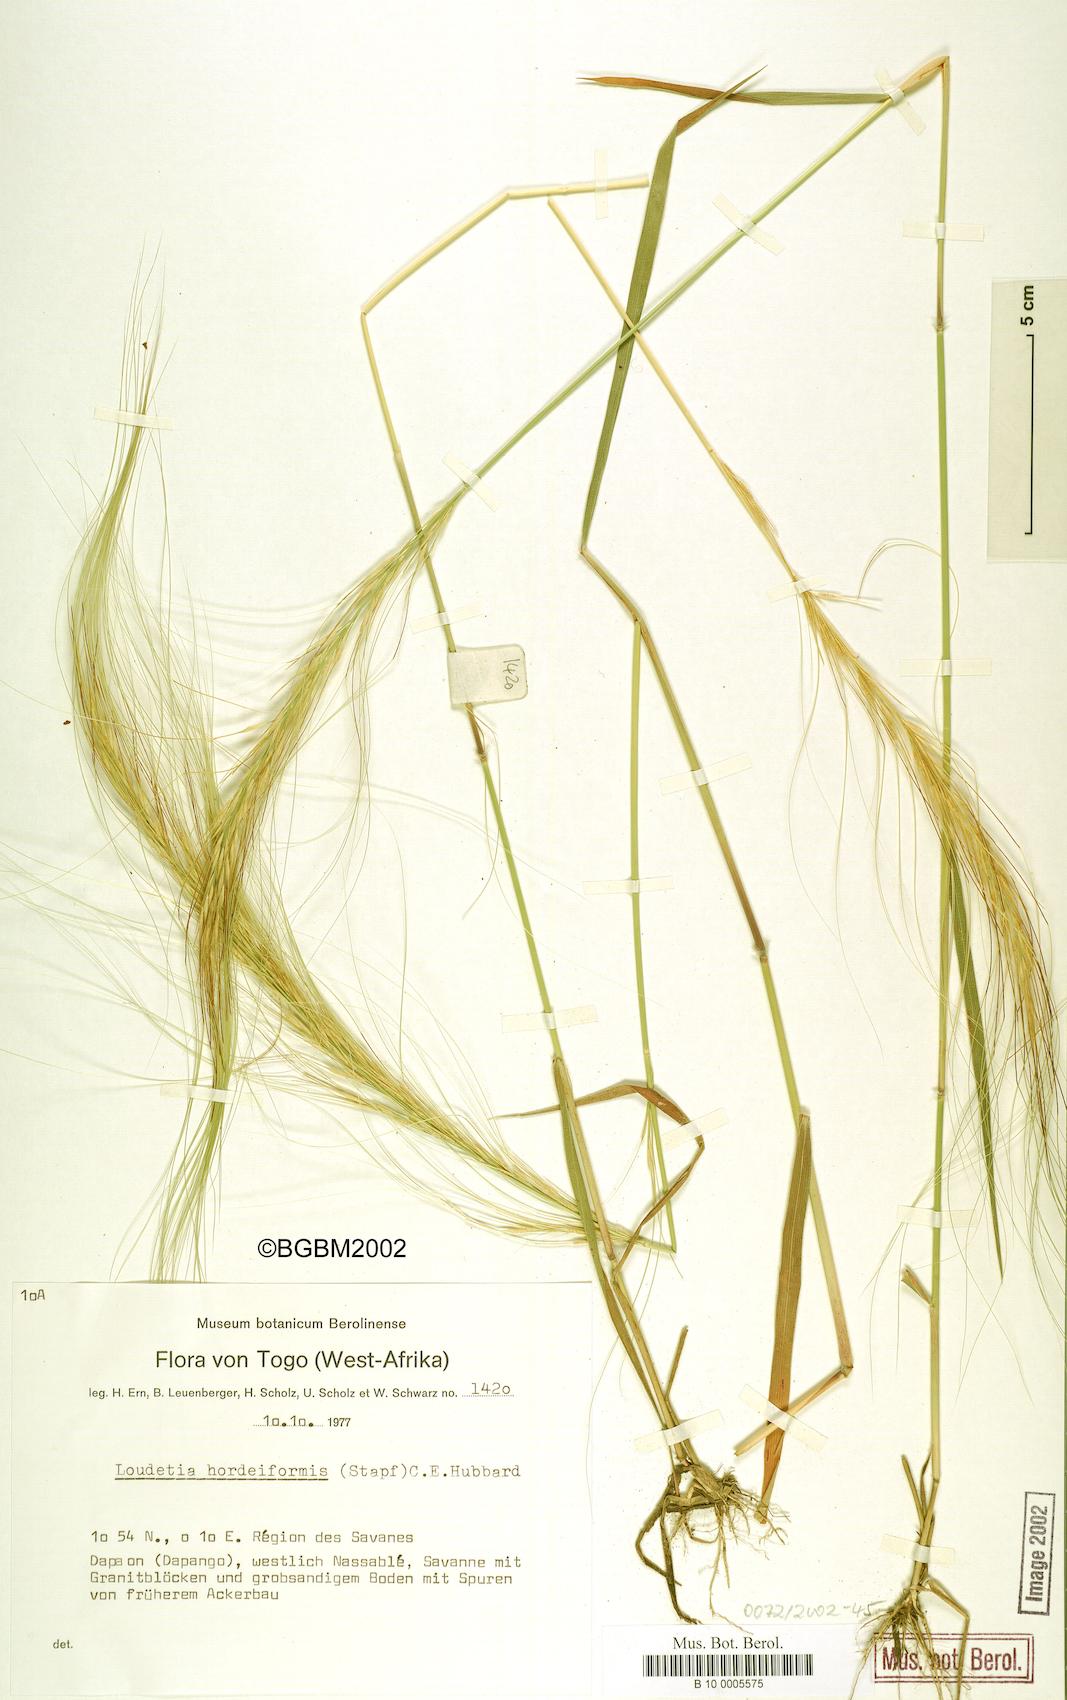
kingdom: Plantae
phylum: Tracheophyta
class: Liliopsida
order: Poales
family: Poaceae
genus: Loudetia
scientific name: Loudetia hordeiformis
